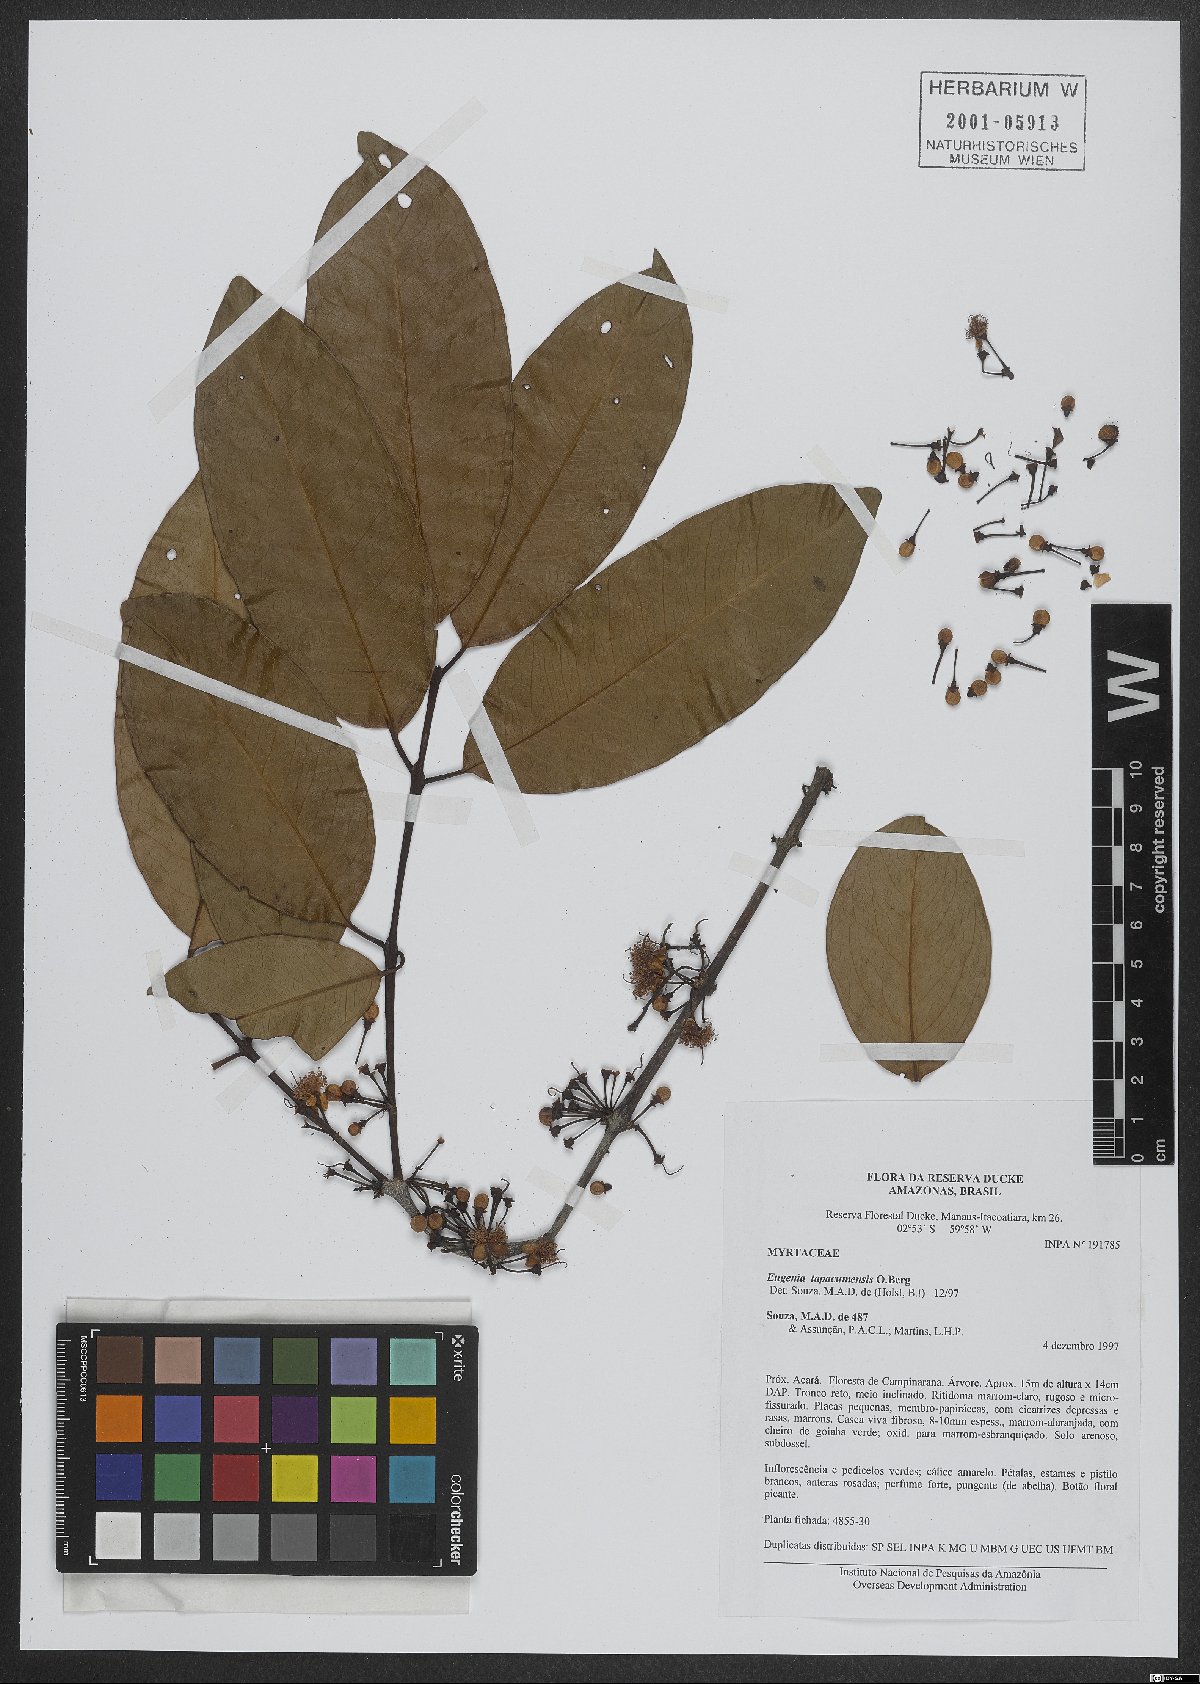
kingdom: Plantae
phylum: Tracheophyta
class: Magnoliopsida
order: Myrtales
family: Myrtaceae
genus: Eugenia
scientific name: Eugenia tapacumensis
